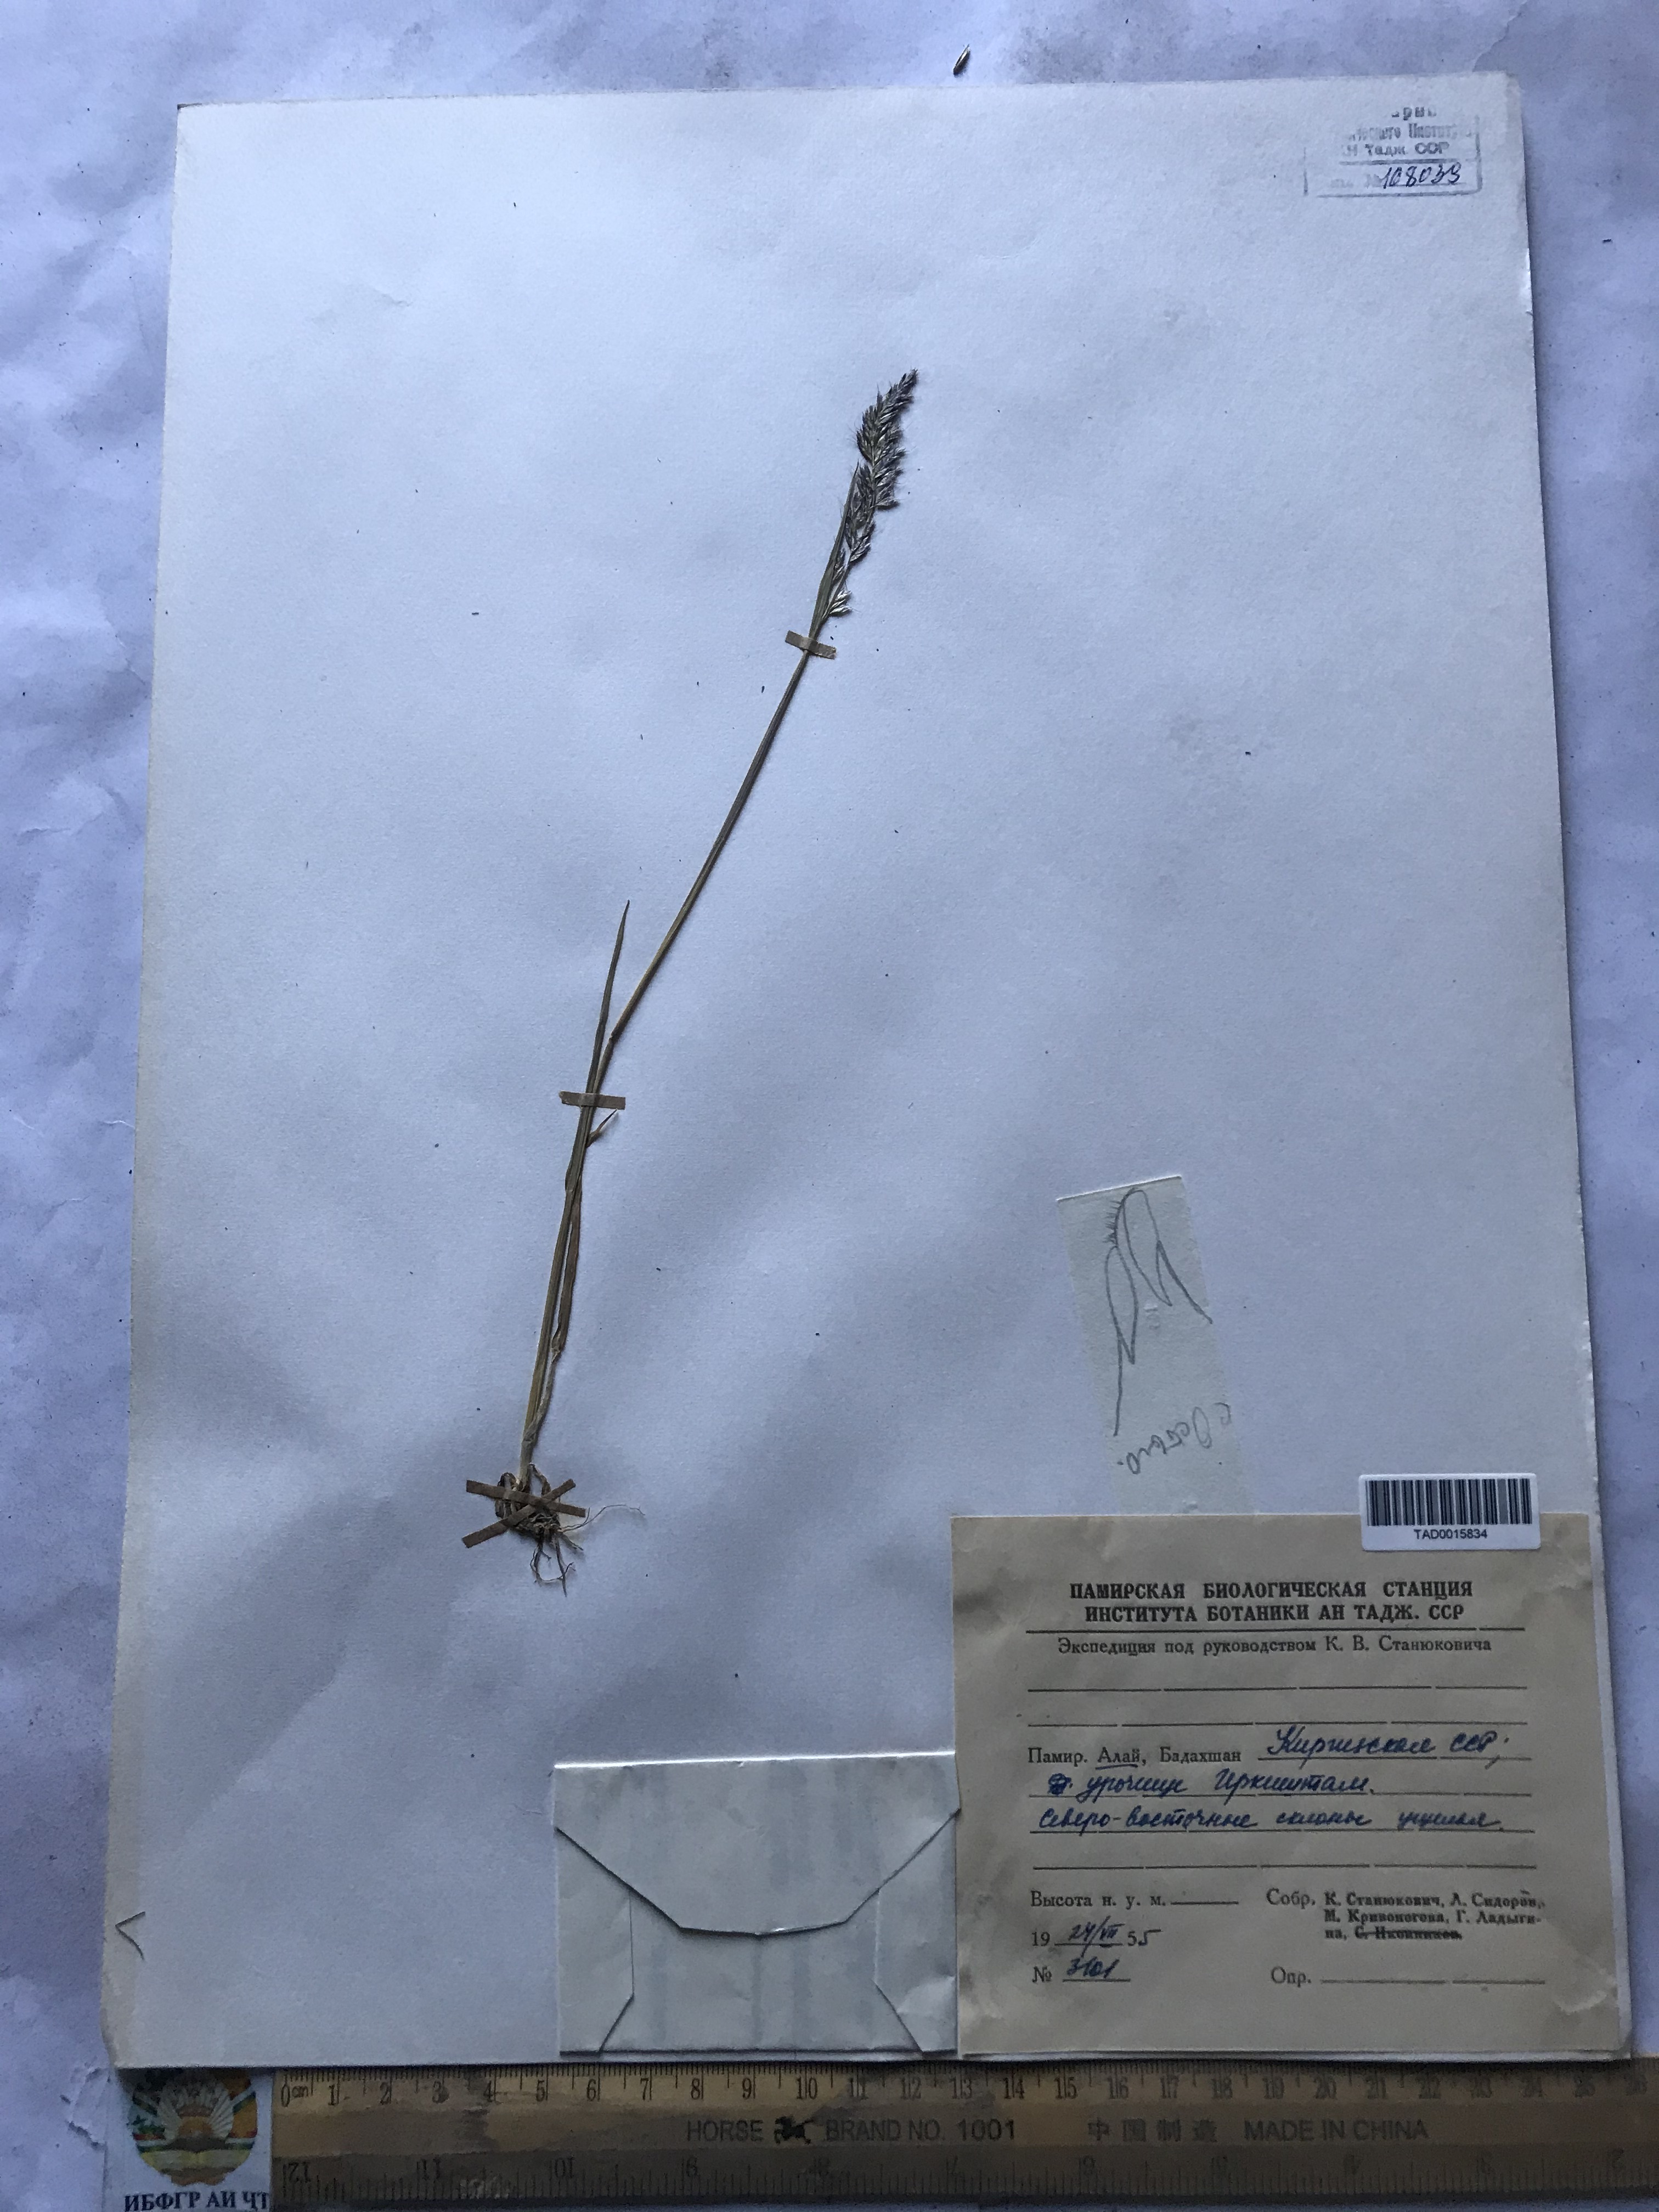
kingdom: Plantae
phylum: Tracheophyta
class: Liliopsida
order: Poales
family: Poaceae
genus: Festuca
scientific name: Festuca rubra
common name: Red fescue
